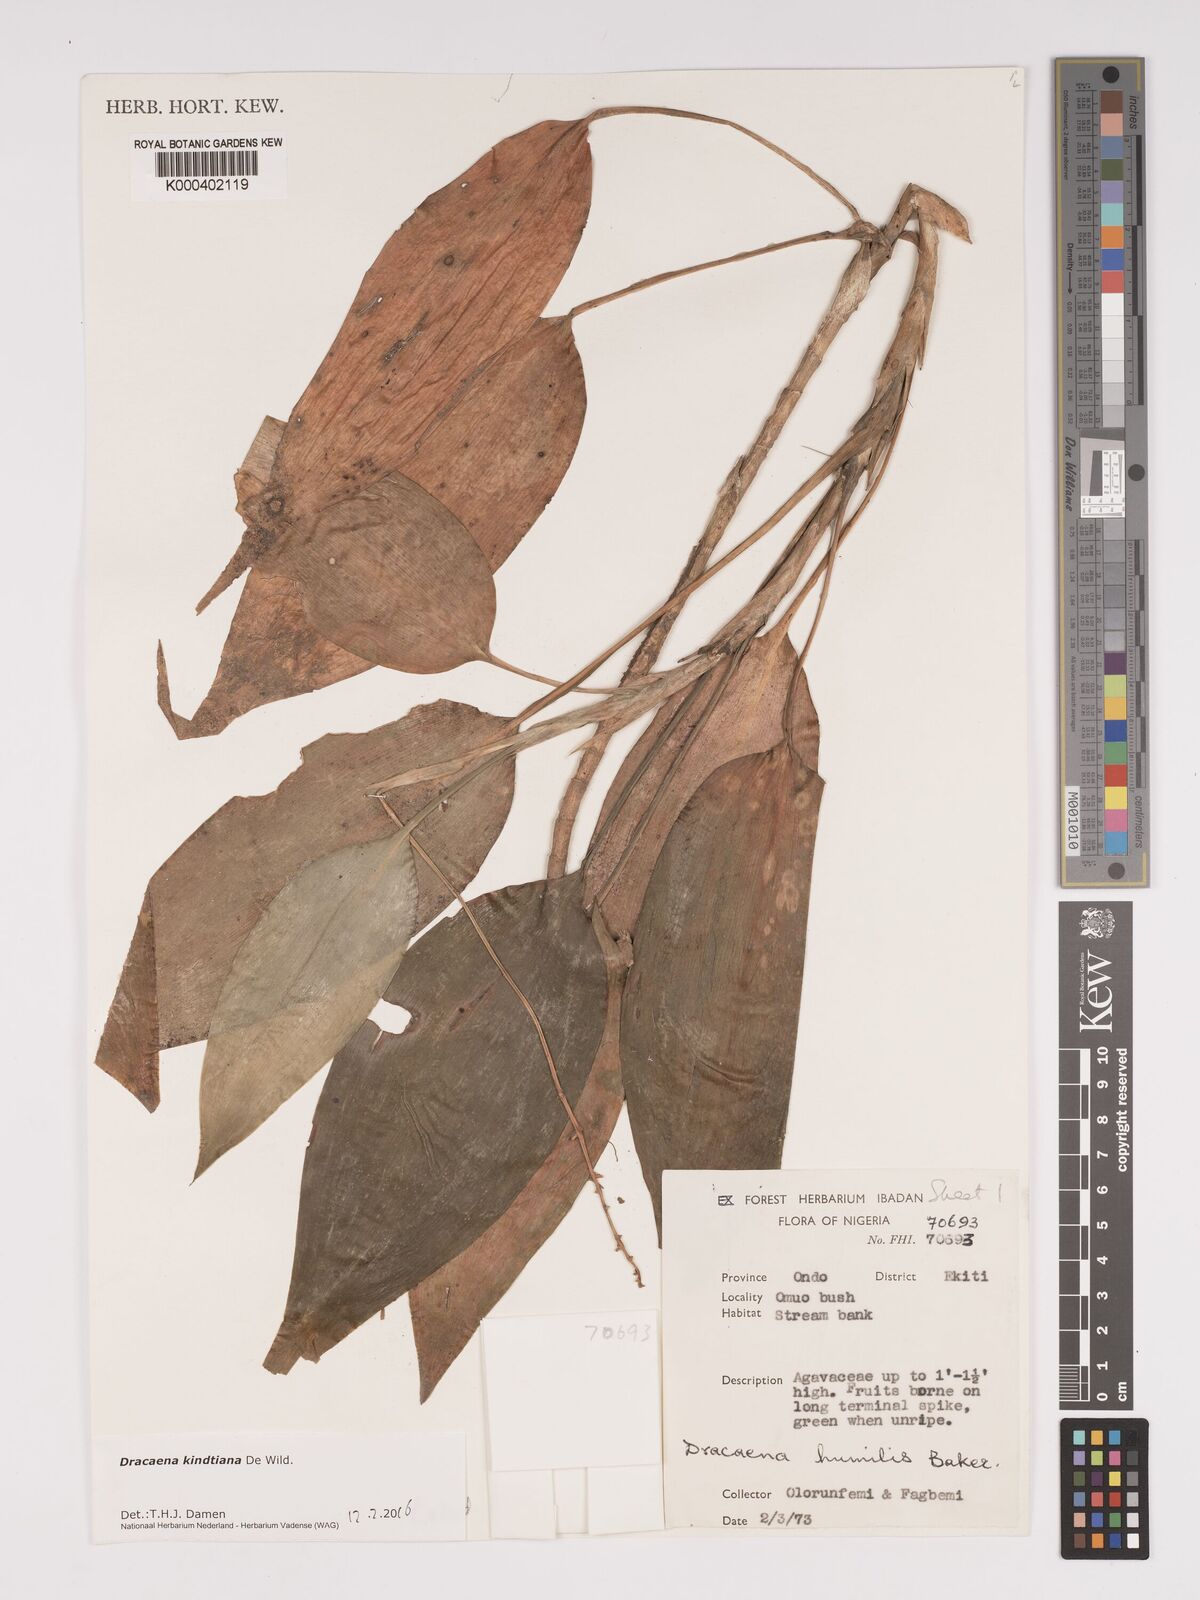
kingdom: Plantae
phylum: Tracheophyta
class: Liliopsida
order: Asparagales
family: Asparagaceae
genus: Dracaena
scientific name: Dracaena kindtiana
